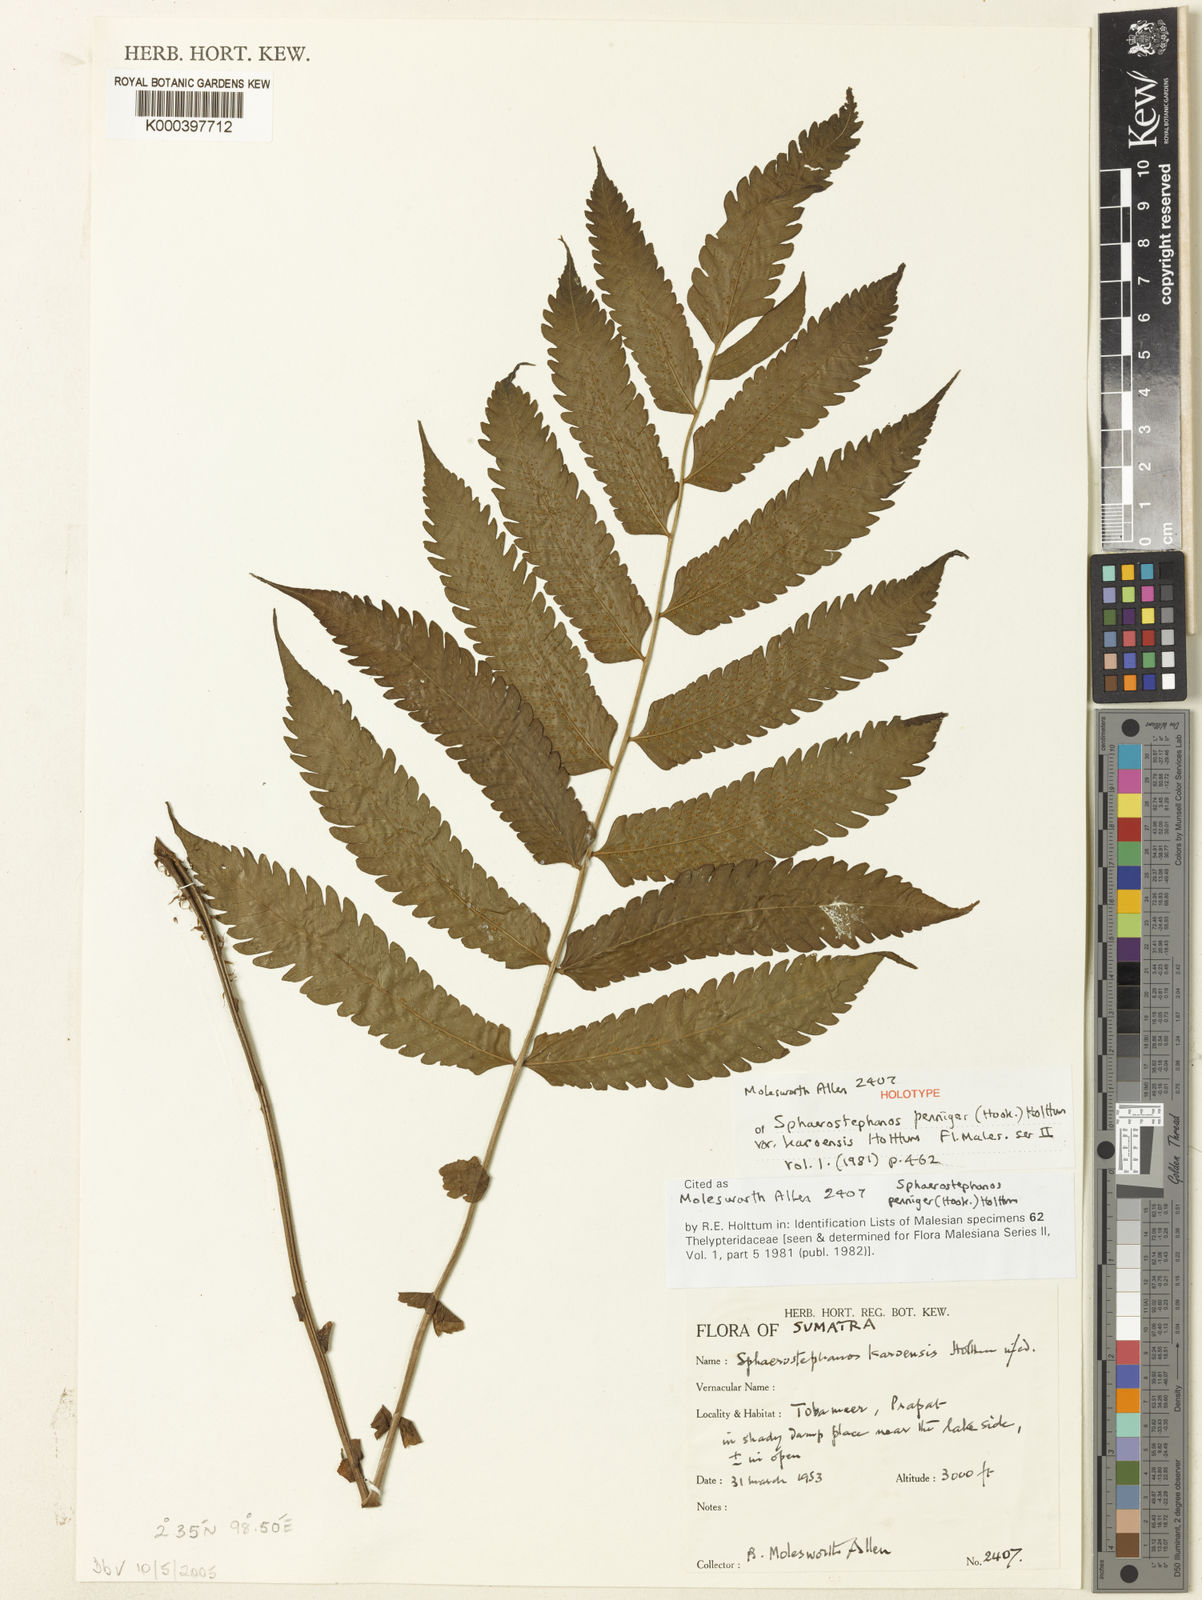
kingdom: Plantae
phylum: Tracheophyta
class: Polypodiopsida
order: Polypodiales
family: Thelypteridaceae
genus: Sphaerostephanos
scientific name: Sphaerostephanos penniger
